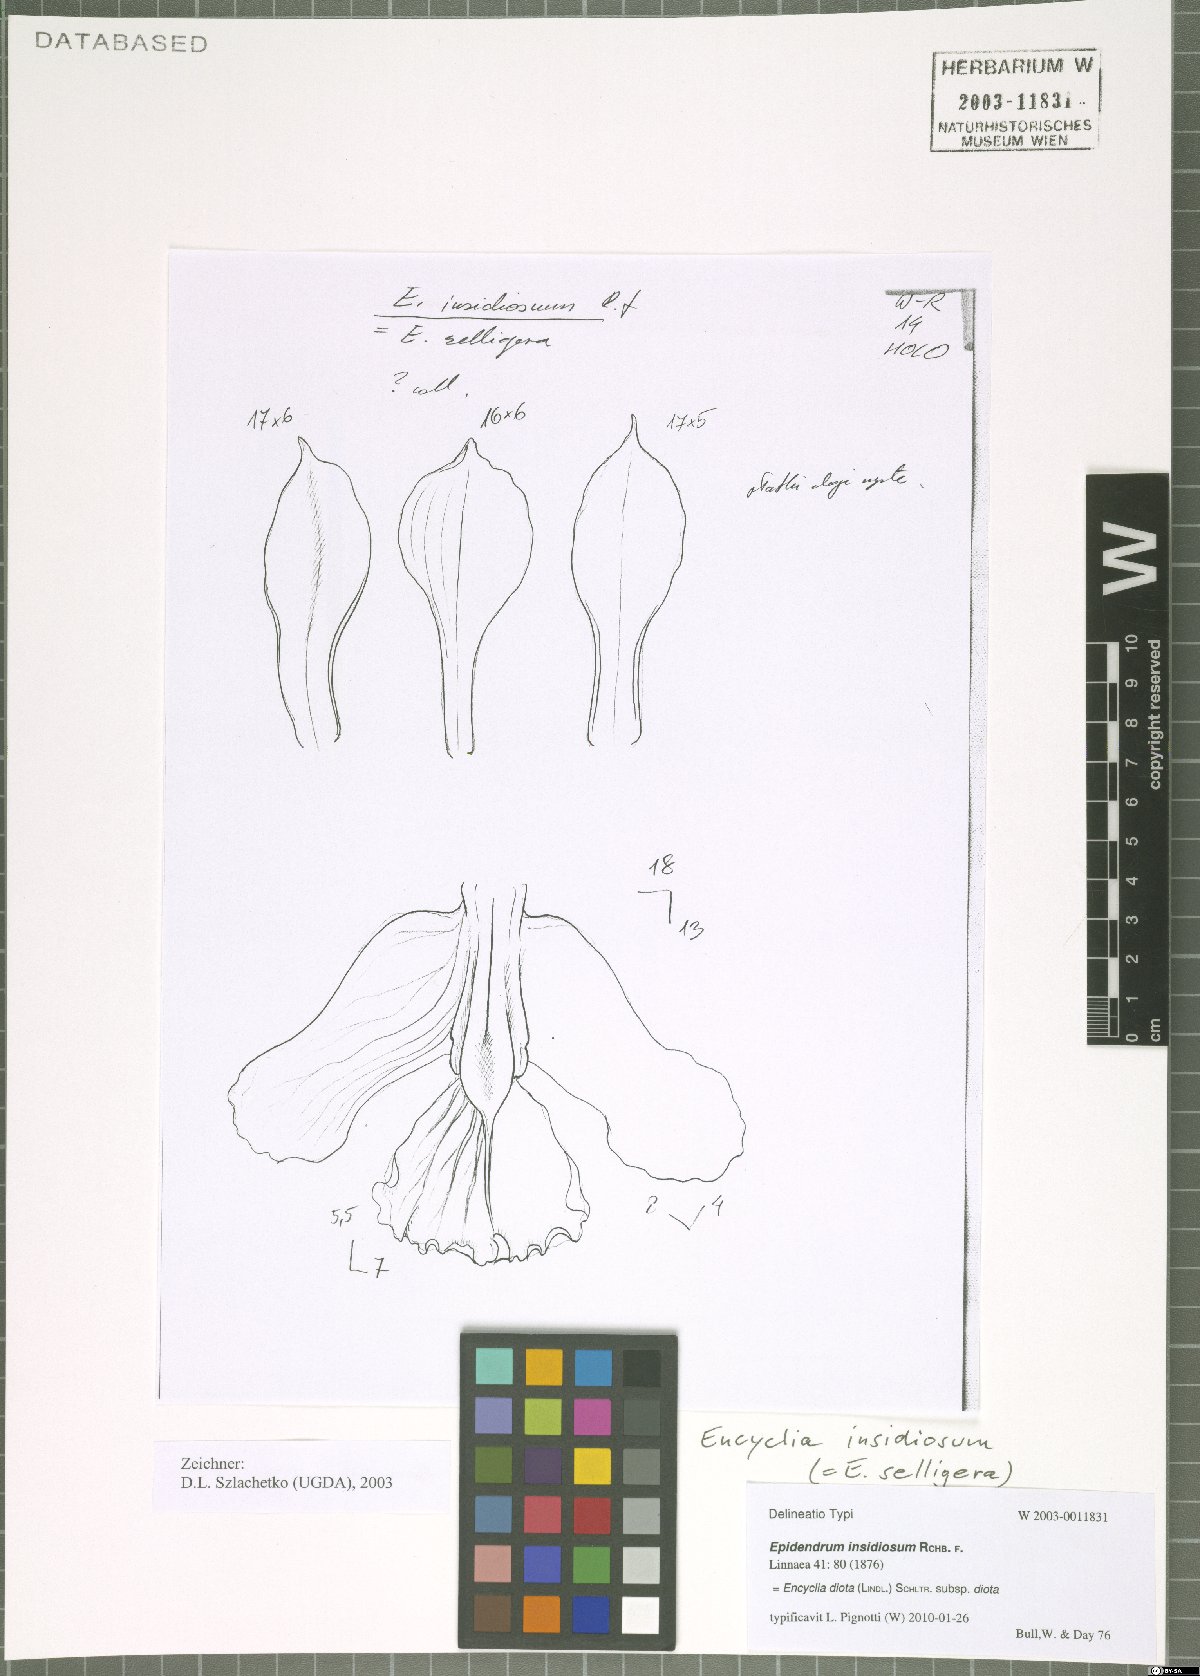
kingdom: Plantae
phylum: Tracheophyta
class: Liliopsida
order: Asparagales
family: Orchidaceae
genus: Encyclia
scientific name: Encyclia diota
